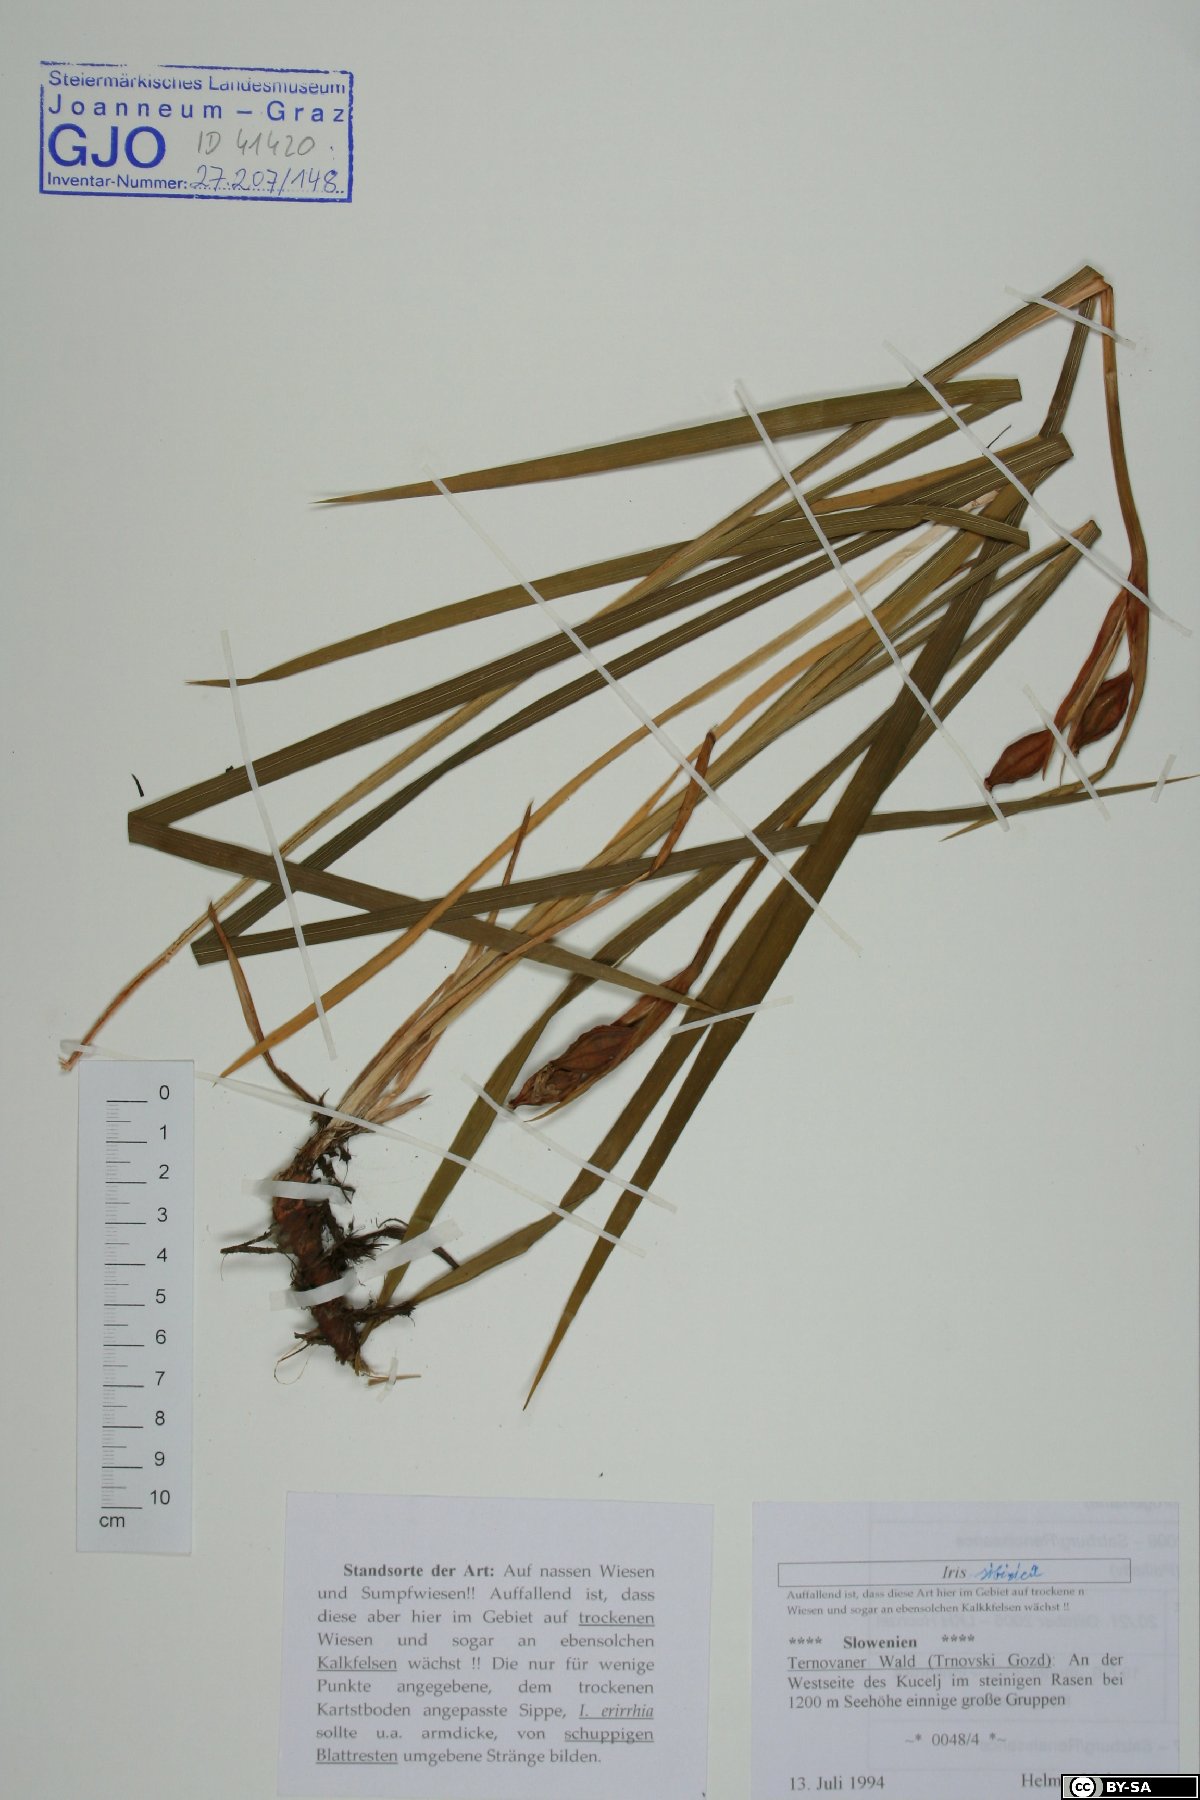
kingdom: Plantae
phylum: Tracheophyta
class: Liliopsida
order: Asparagales
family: Iridaceae
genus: Iris
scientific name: Iris
